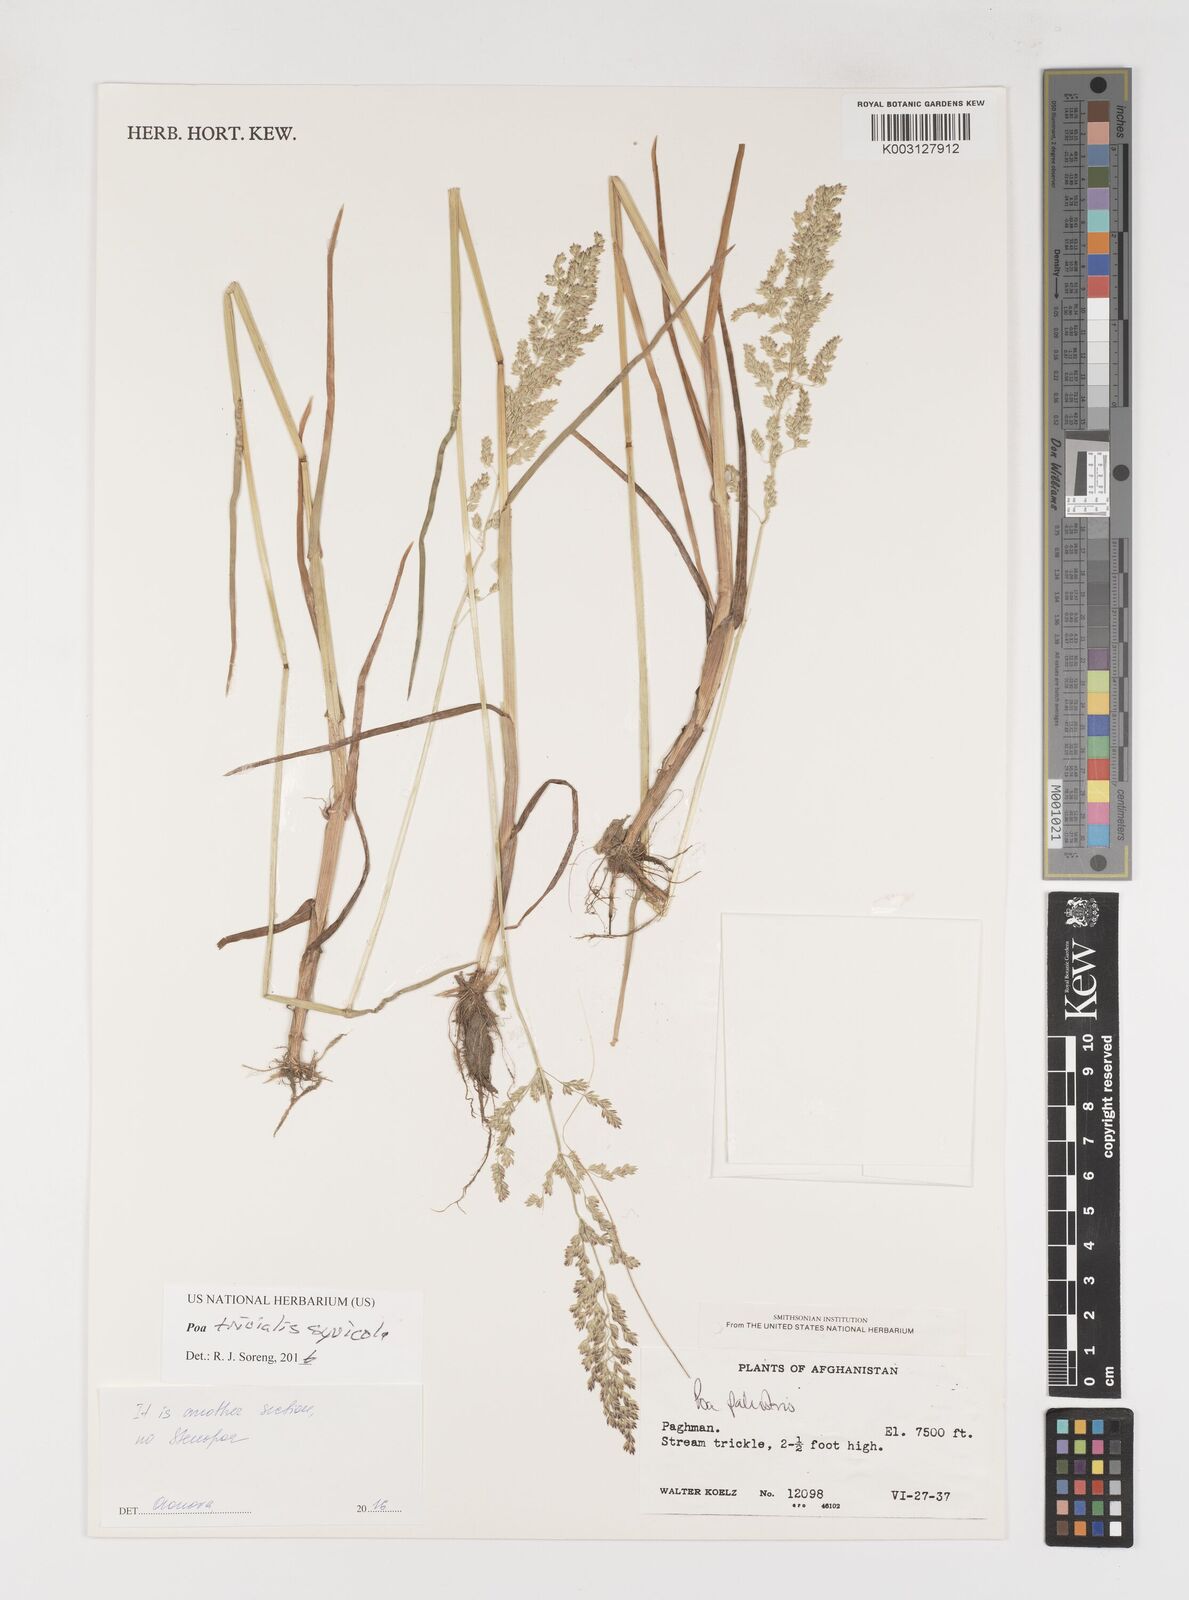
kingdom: Plantae
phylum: Tracheophyta
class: Liliopsida
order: Poales
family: Poaceae
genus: Poa
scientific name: Poa trivialis
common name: Rough bluegrass
